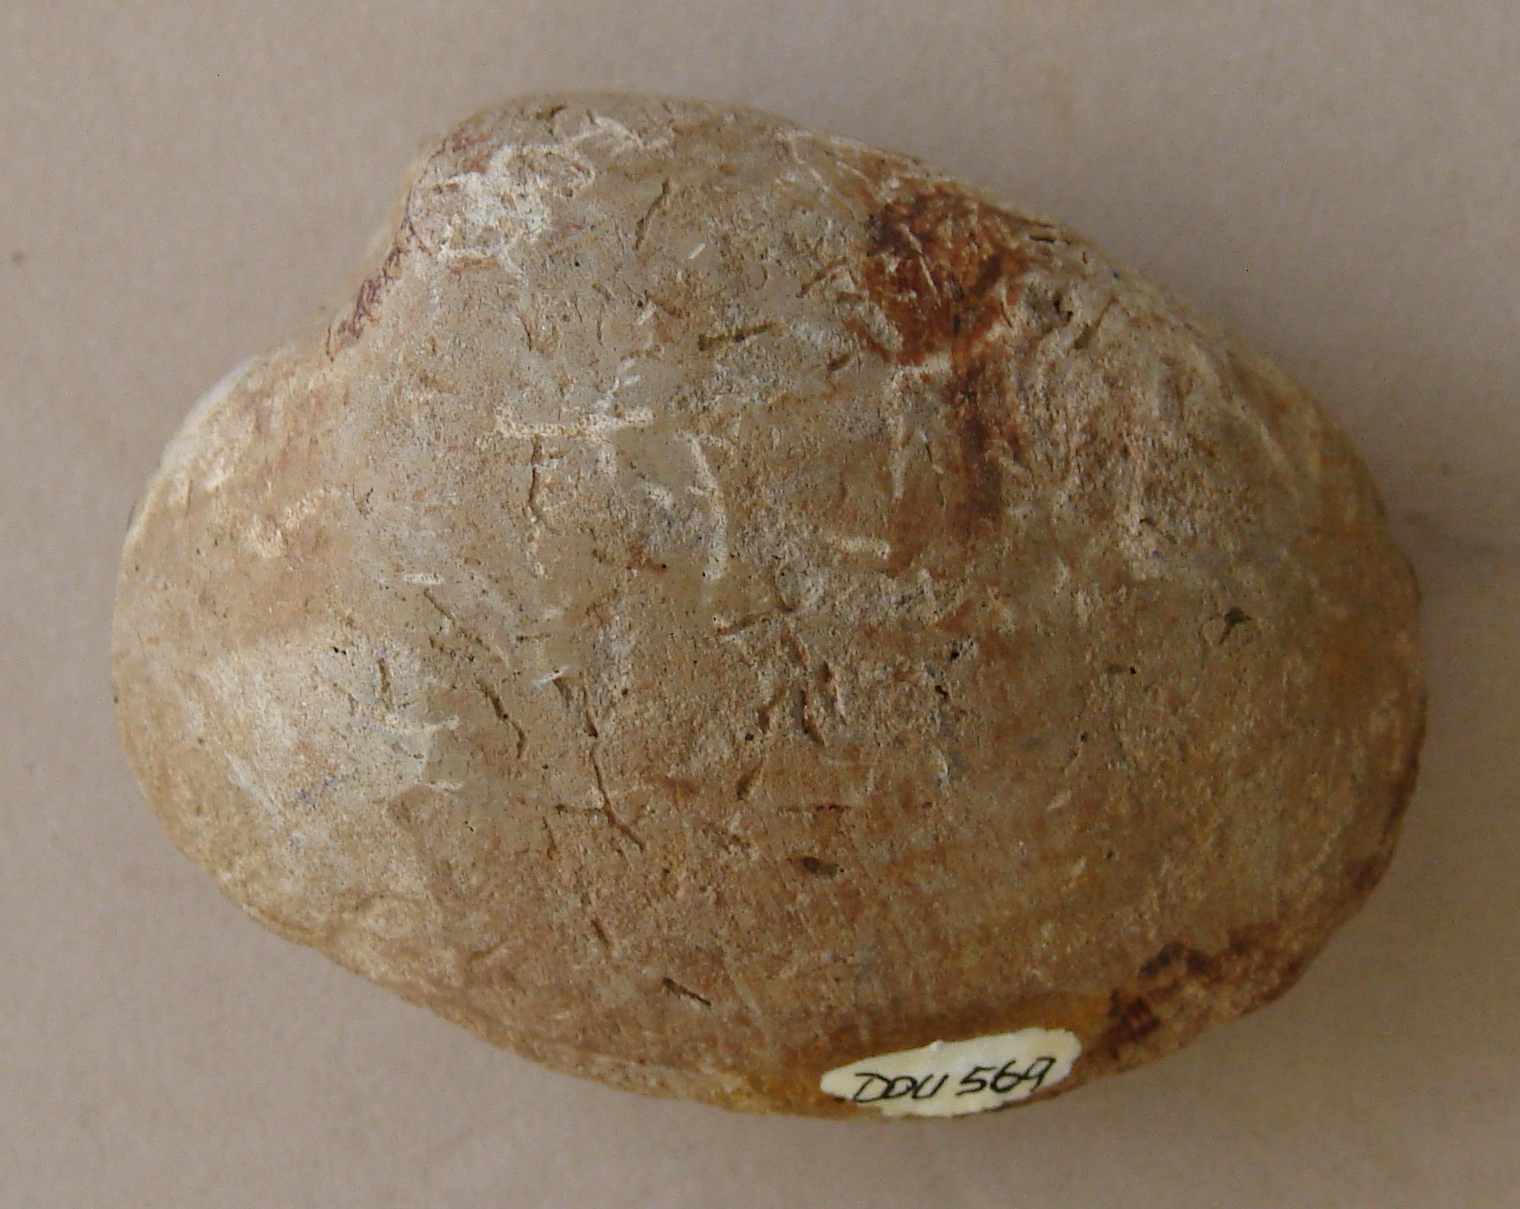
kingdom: Animalia
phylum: Mollusca
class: Bivalvia
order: Myida
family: Ceratomyidae
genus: Gresslya
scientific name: Gresslya
